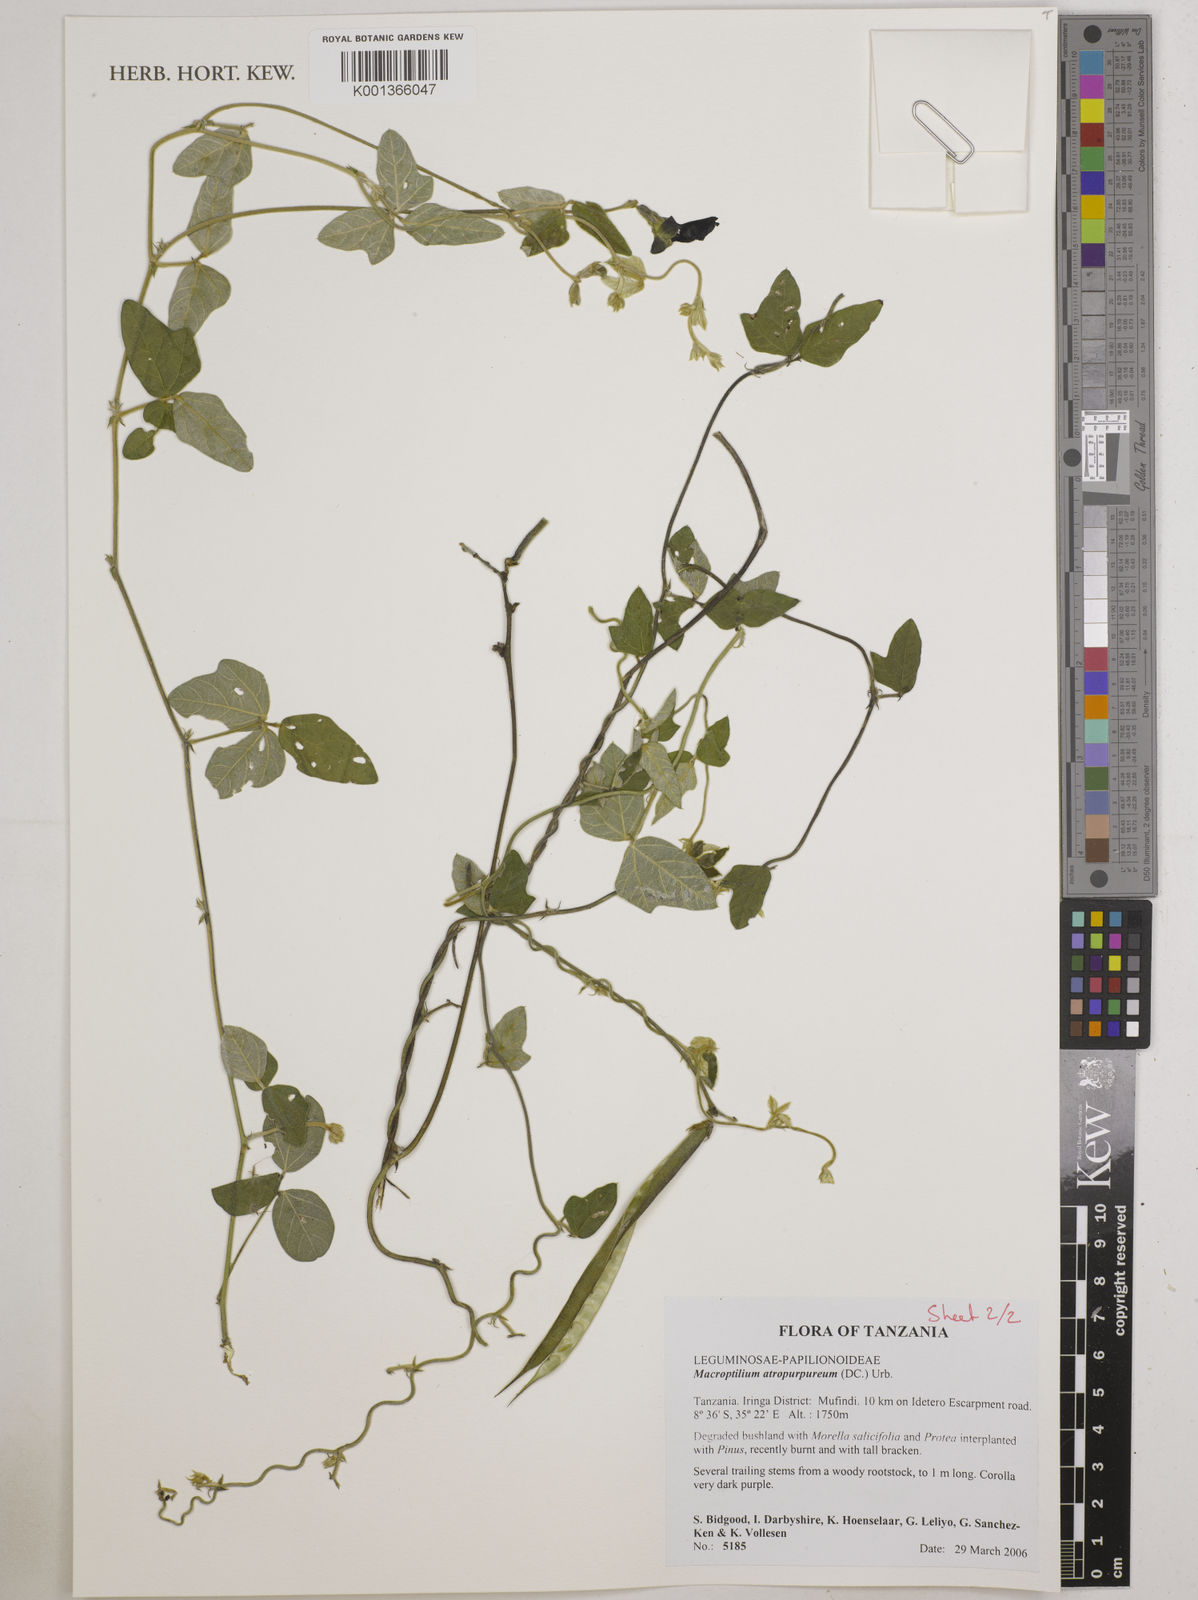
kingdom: Plantae
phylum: Tracheophyta
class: Magnoliopsida
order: Fabales
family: Fabaceae
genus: Macroptilium
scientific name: Macroptilium atropurpureum
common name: Purple bushbean
